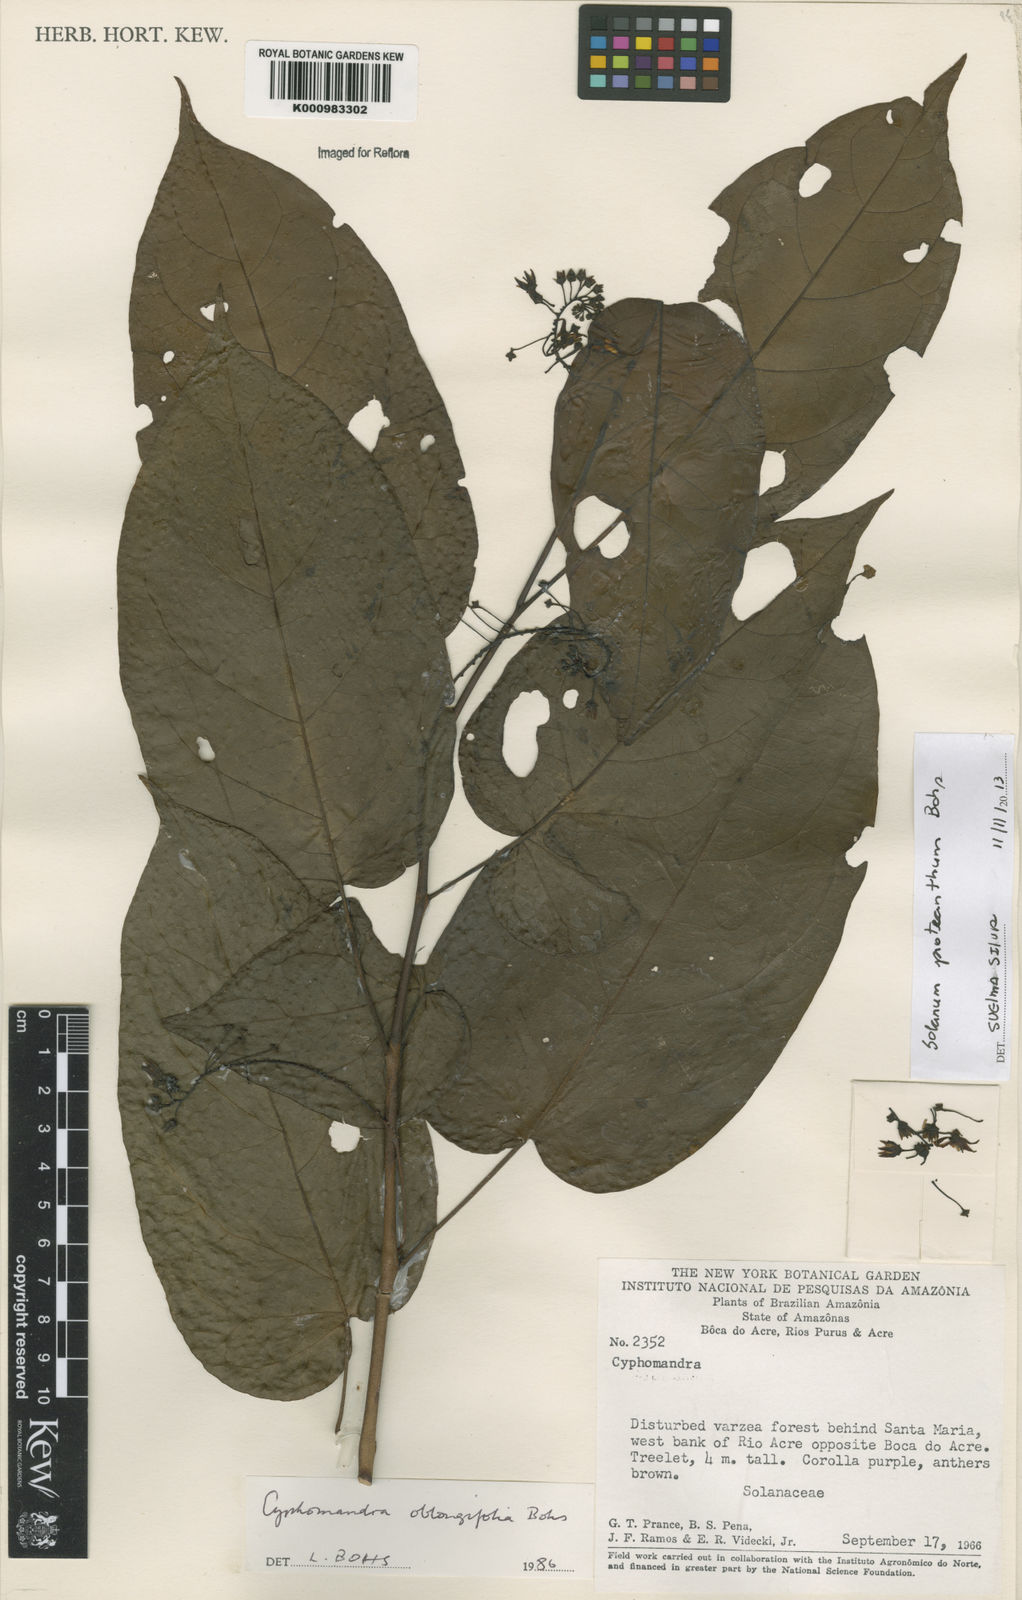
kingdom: Plantae
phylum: Tracheophyta
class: Magnoliopsida
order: Solanales
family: Solanaceae
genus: Solanum
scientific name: Solanum proteanthum
